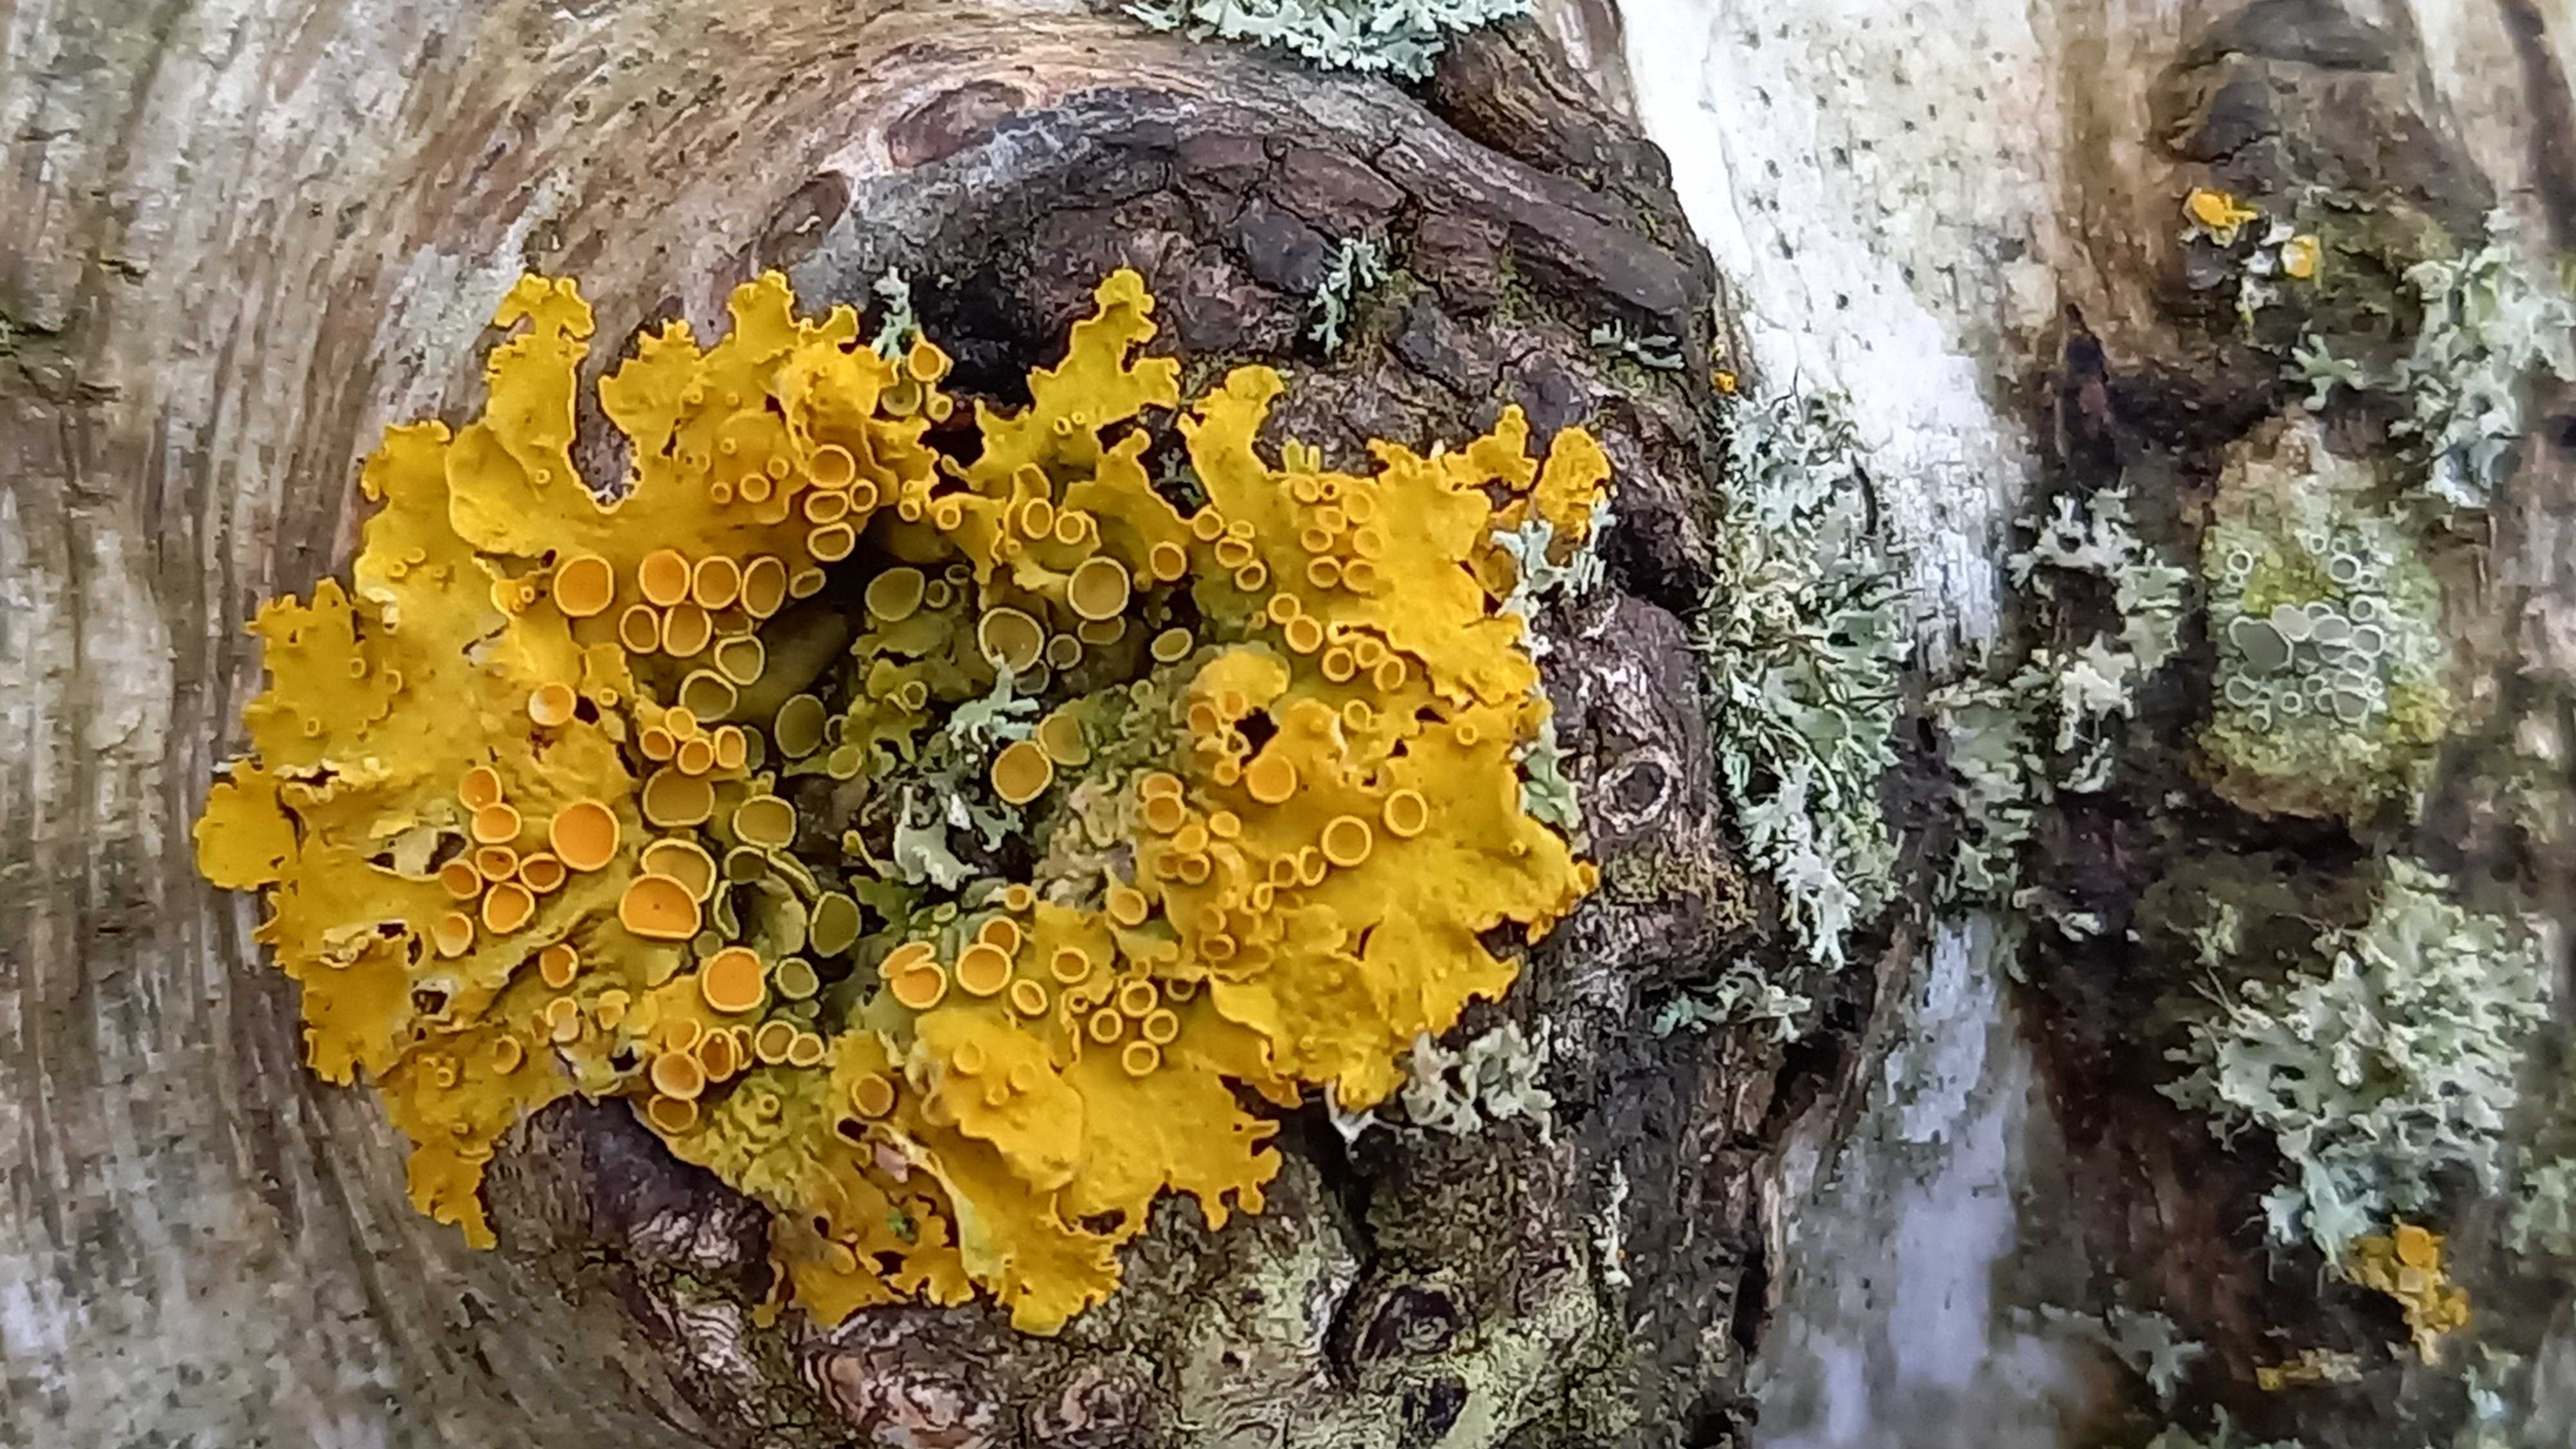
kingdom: Fungi
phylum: Ascomycota
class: Lecanoromycetes
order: Teloschistales
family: Teloschistaceae
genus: Xanthoria
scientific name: Xanthoria parietina
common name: almindelig væggelav
